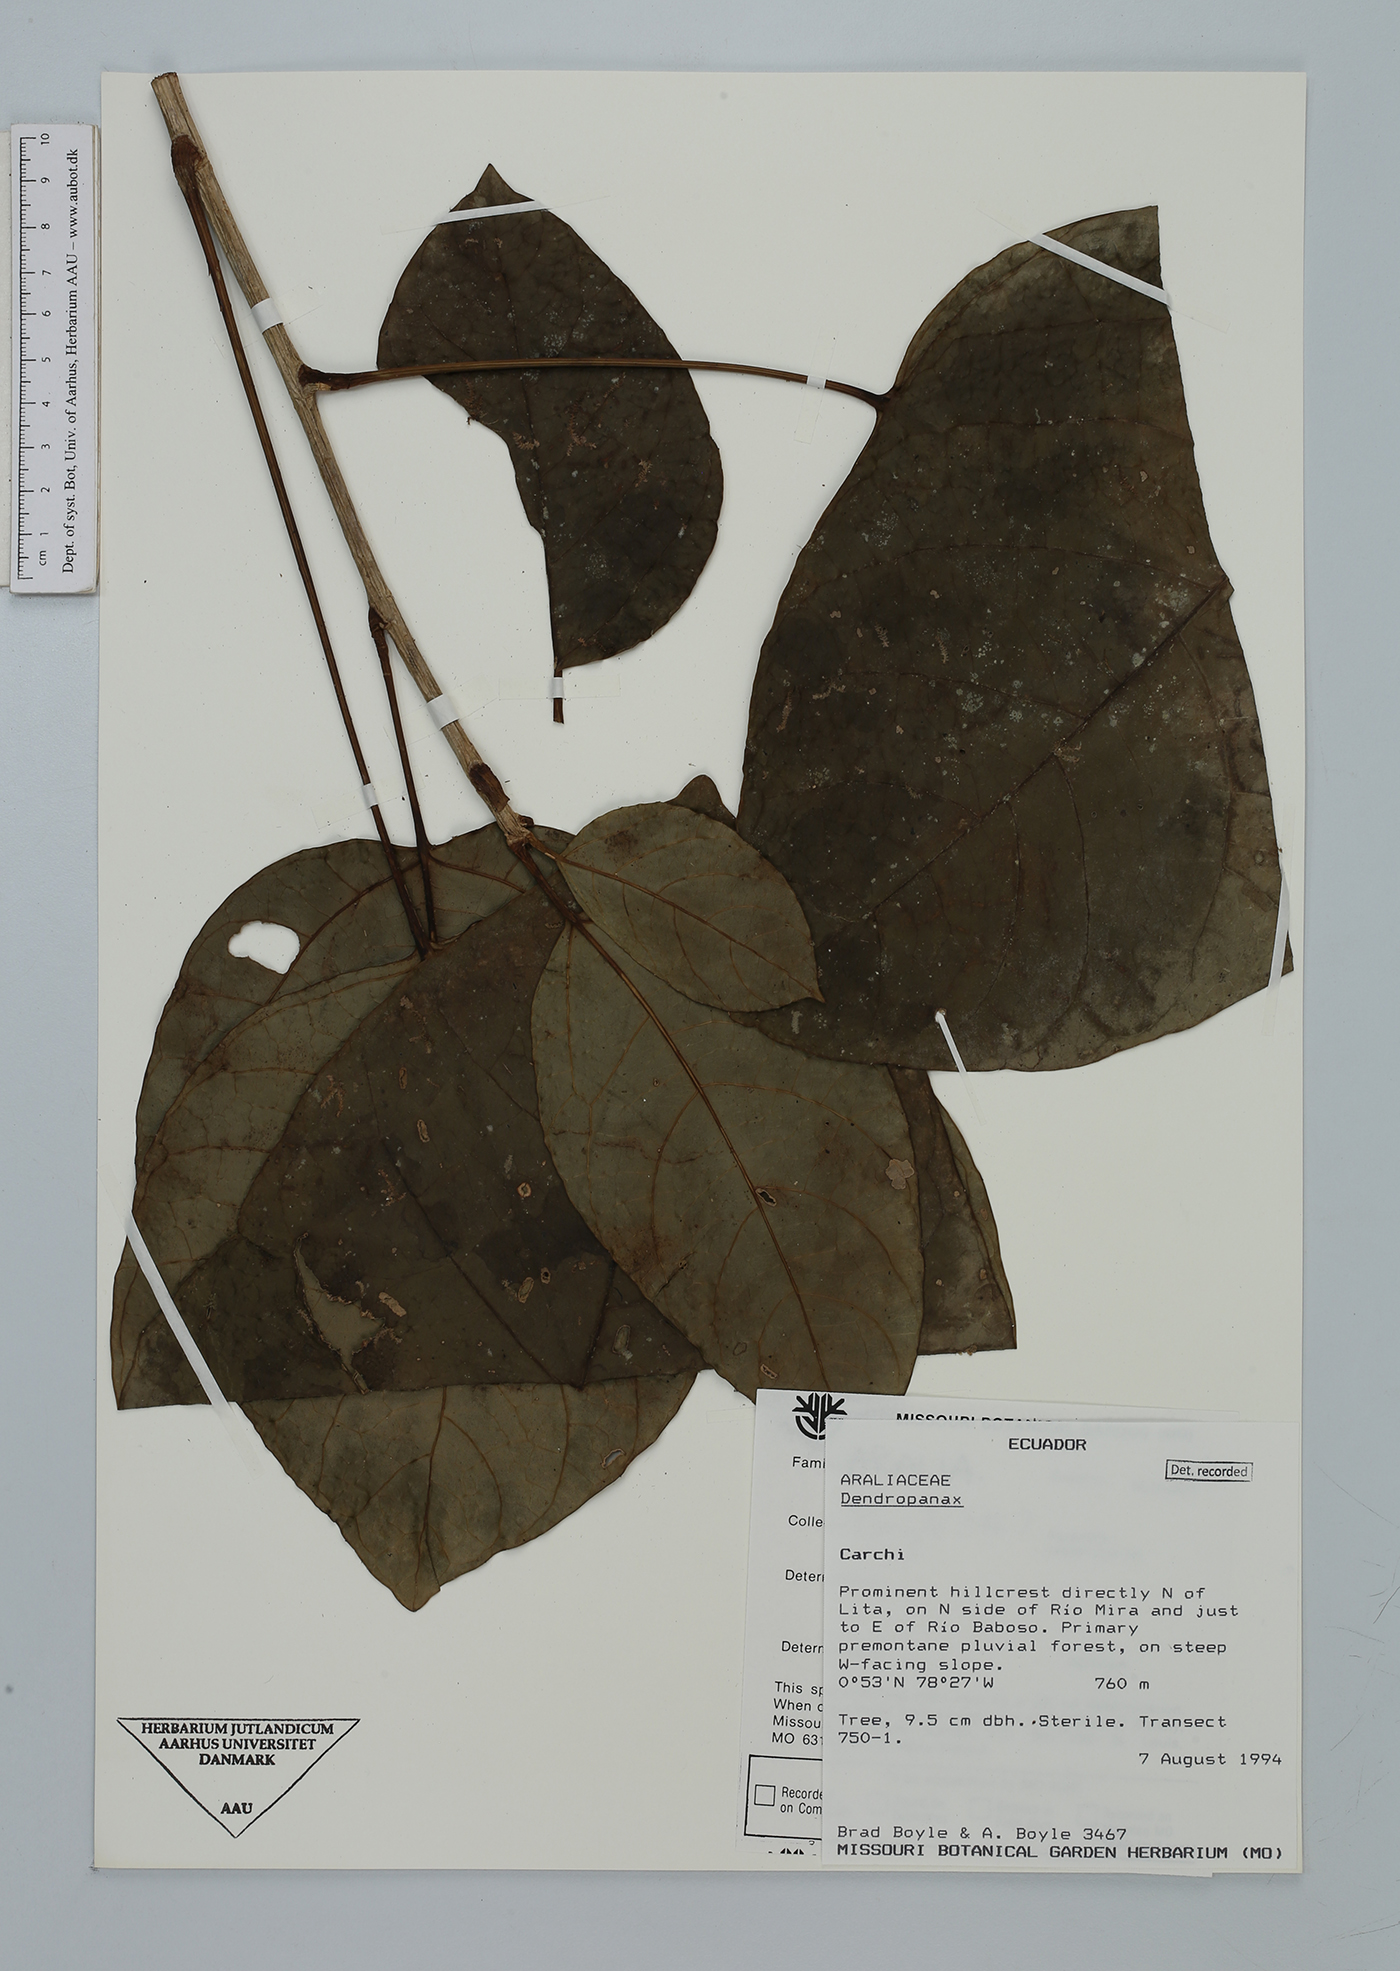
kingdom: Plantae
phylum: Tracheophyta
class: Magnoliopsida
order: Apiales
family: Araliaceae
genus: Dendropanax
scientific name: Dendropanax
